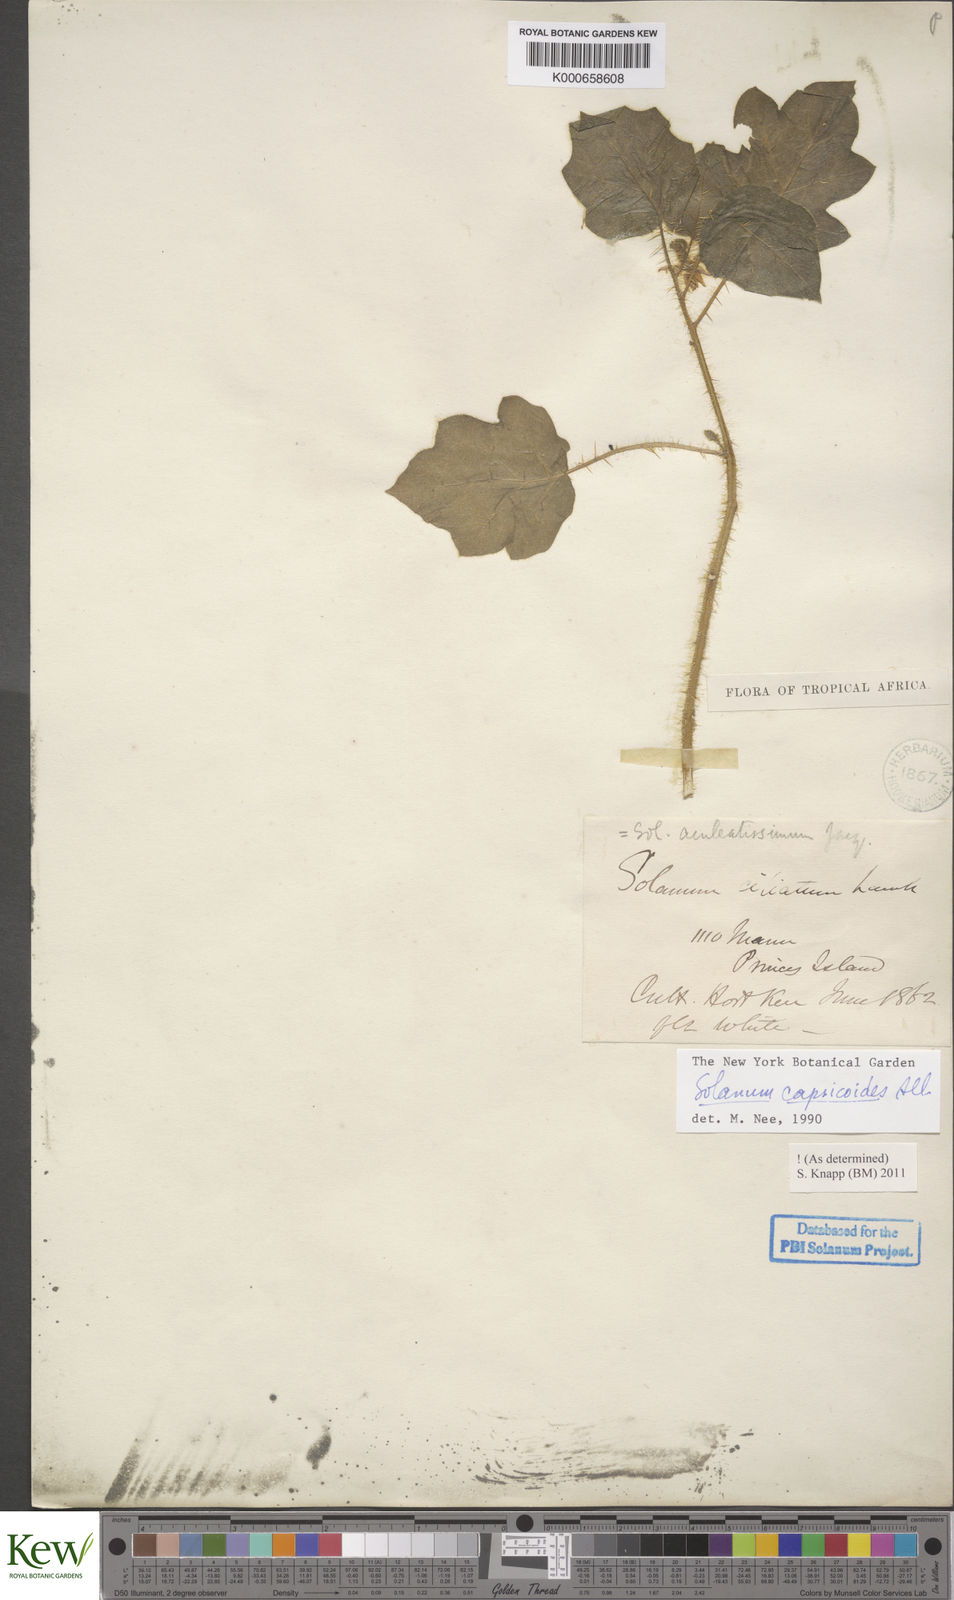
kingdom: Plantae
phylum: Tracheophyta
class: Magnoliopsida
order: Solanales
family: Solanaceae
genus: Solanum
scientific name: Solanum capsicoides
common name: Cockroach berry
